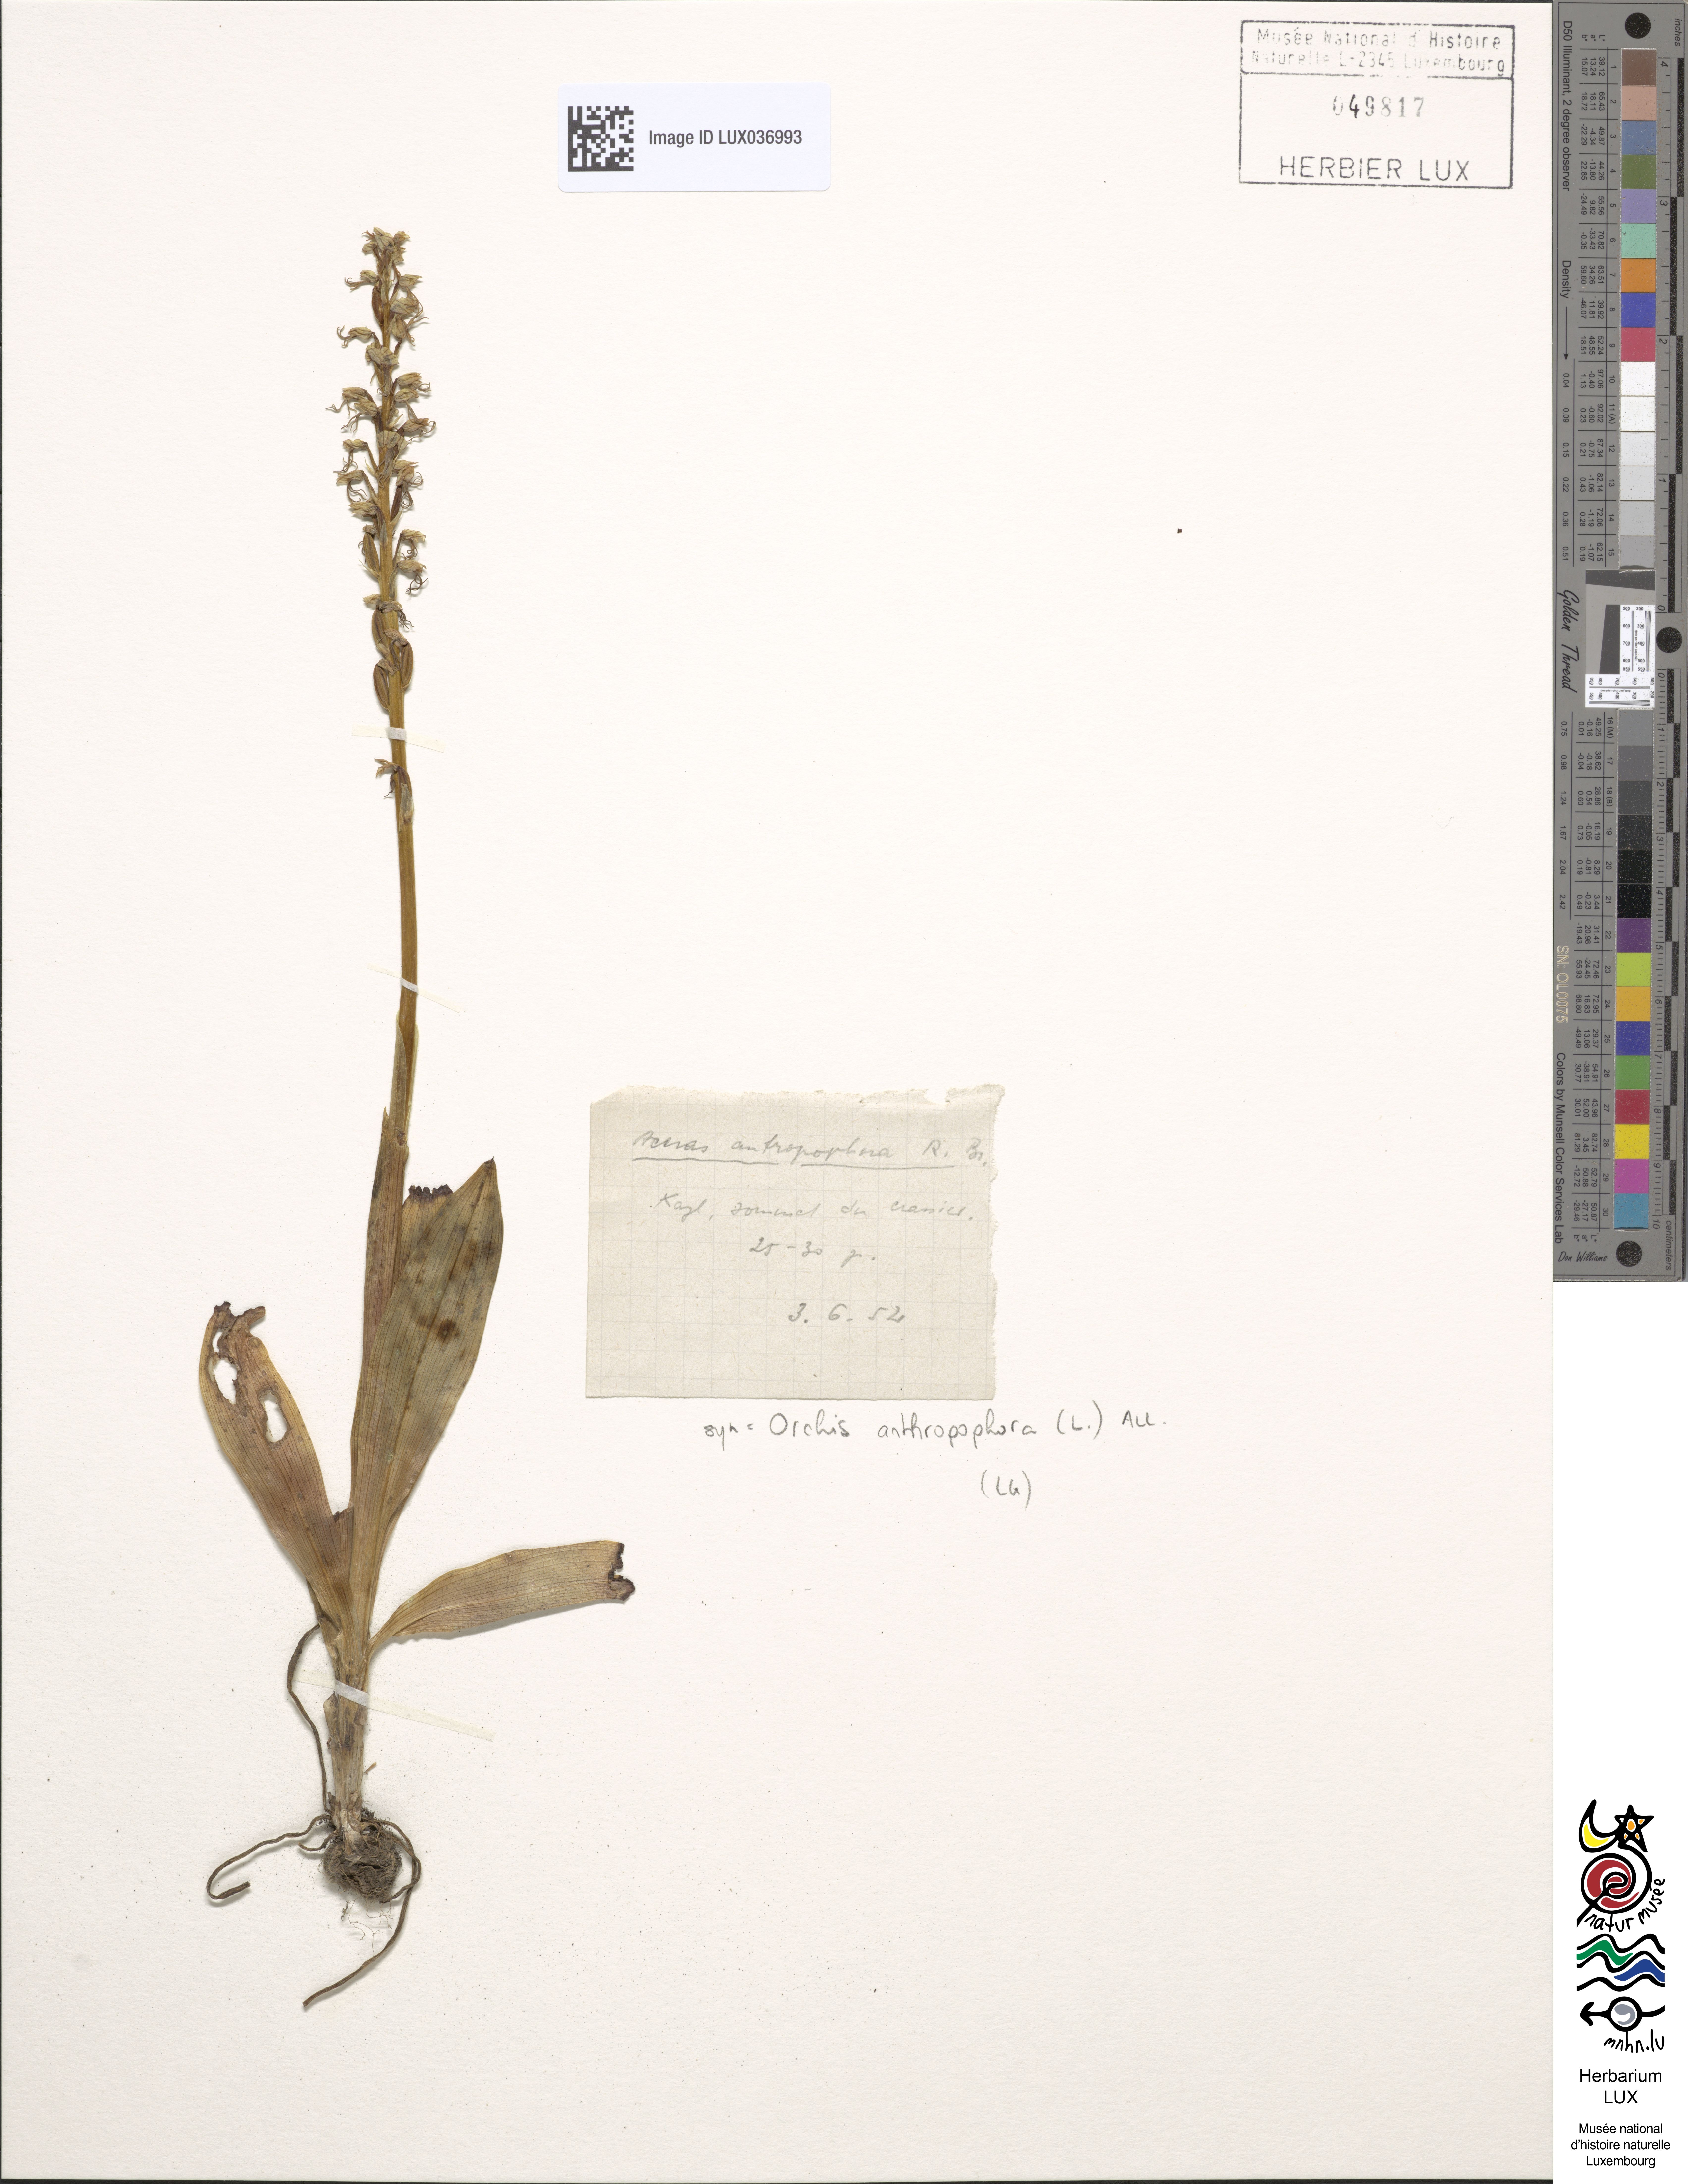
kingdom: Plantae
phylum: Tracheophyta
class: Liliopsida
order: Asparagales
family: Orchidaceae
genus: Orchis
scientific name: Orchis anthropophora
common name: Man orchid
